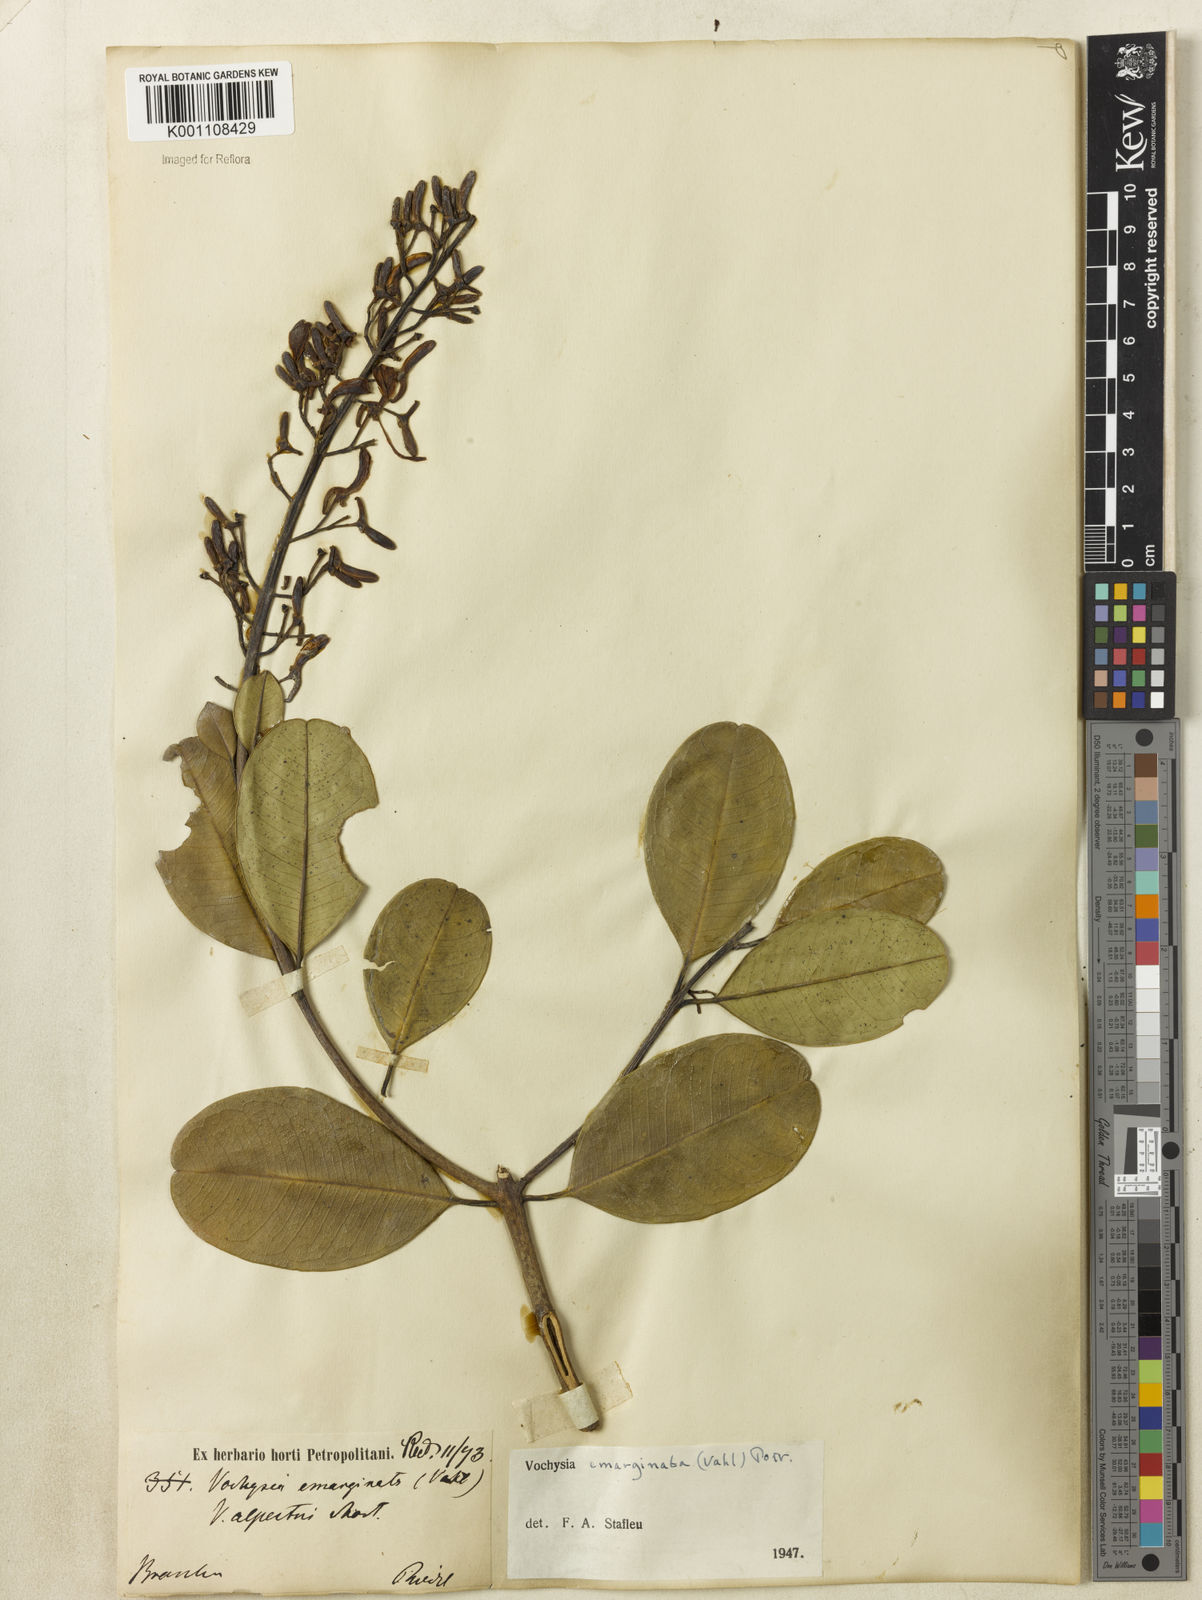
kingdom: Plantae
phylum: Tracheophyta
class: Magnoliopsida
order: Myrtales
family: Vochysiaceae
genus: Vochysia
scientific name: Vochysia
